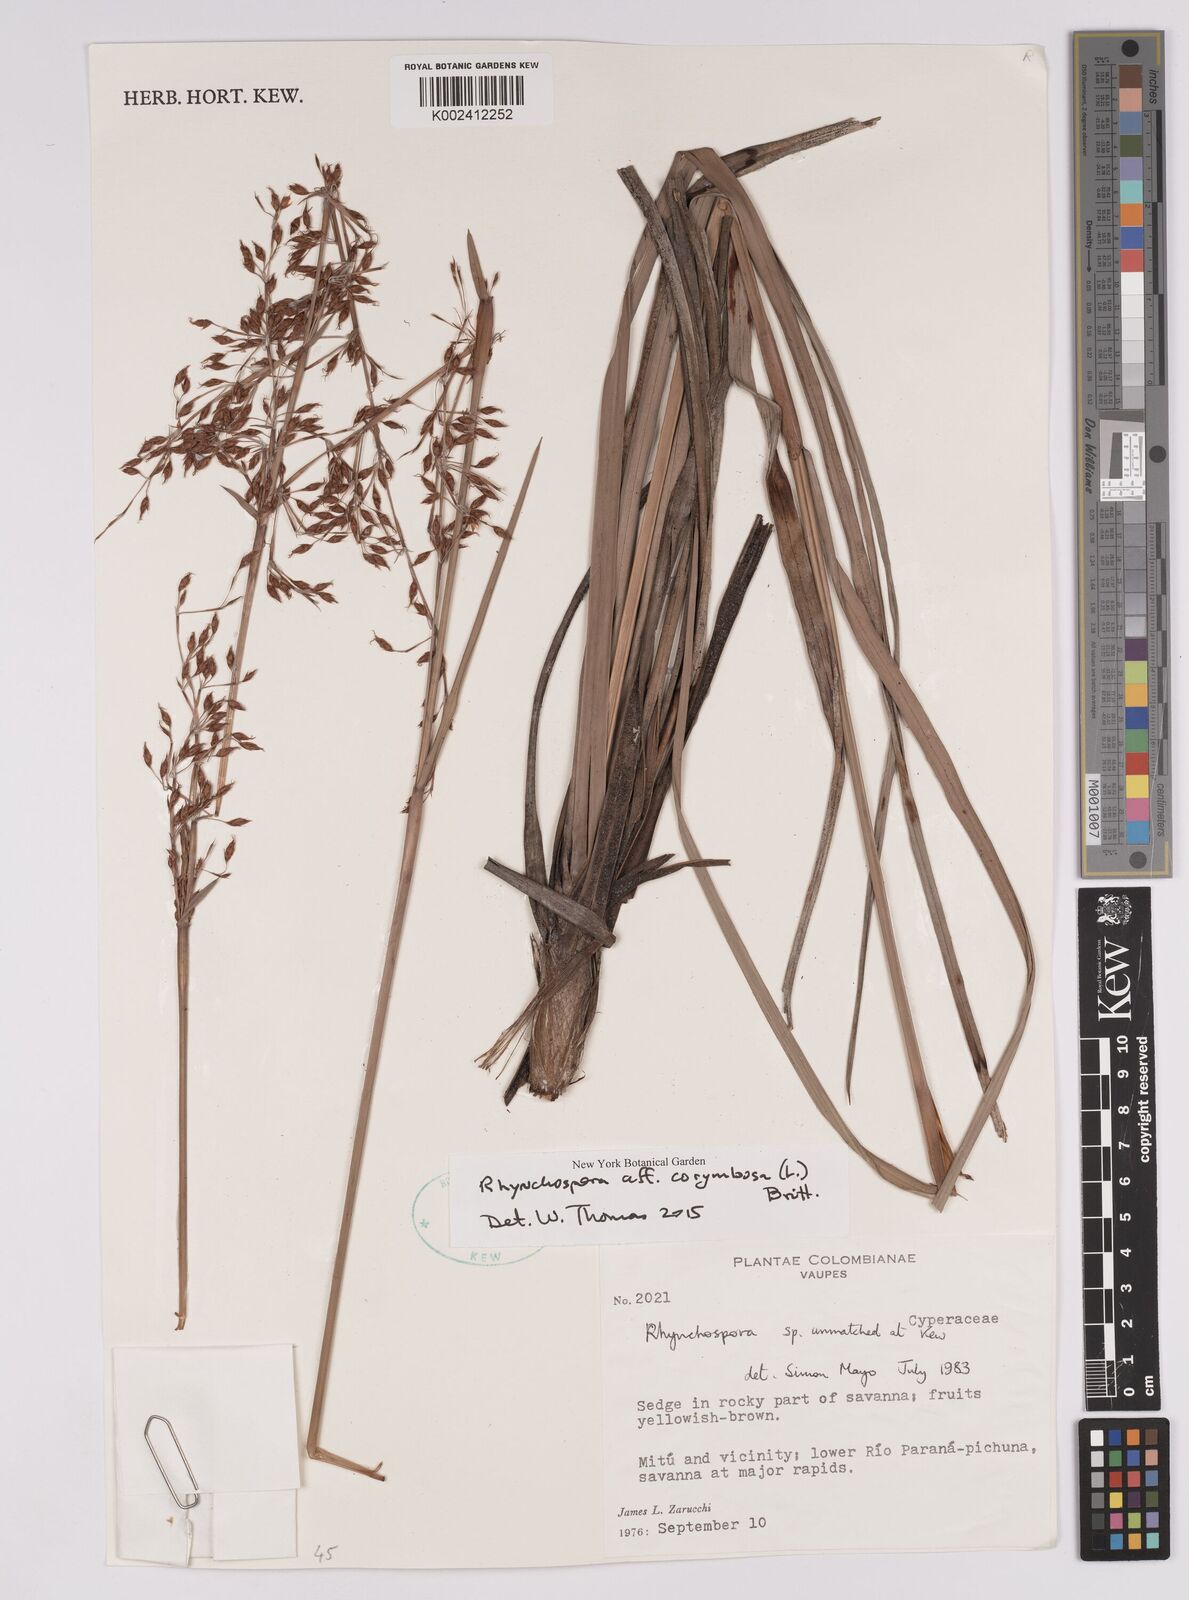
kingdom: Plantae
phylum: Tracheophyta
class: Liliopsida
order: Poales
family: Cyperaceae
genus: Rhynchospora
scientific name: Rhynchospora corymbosa
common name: Golden beak sedge
